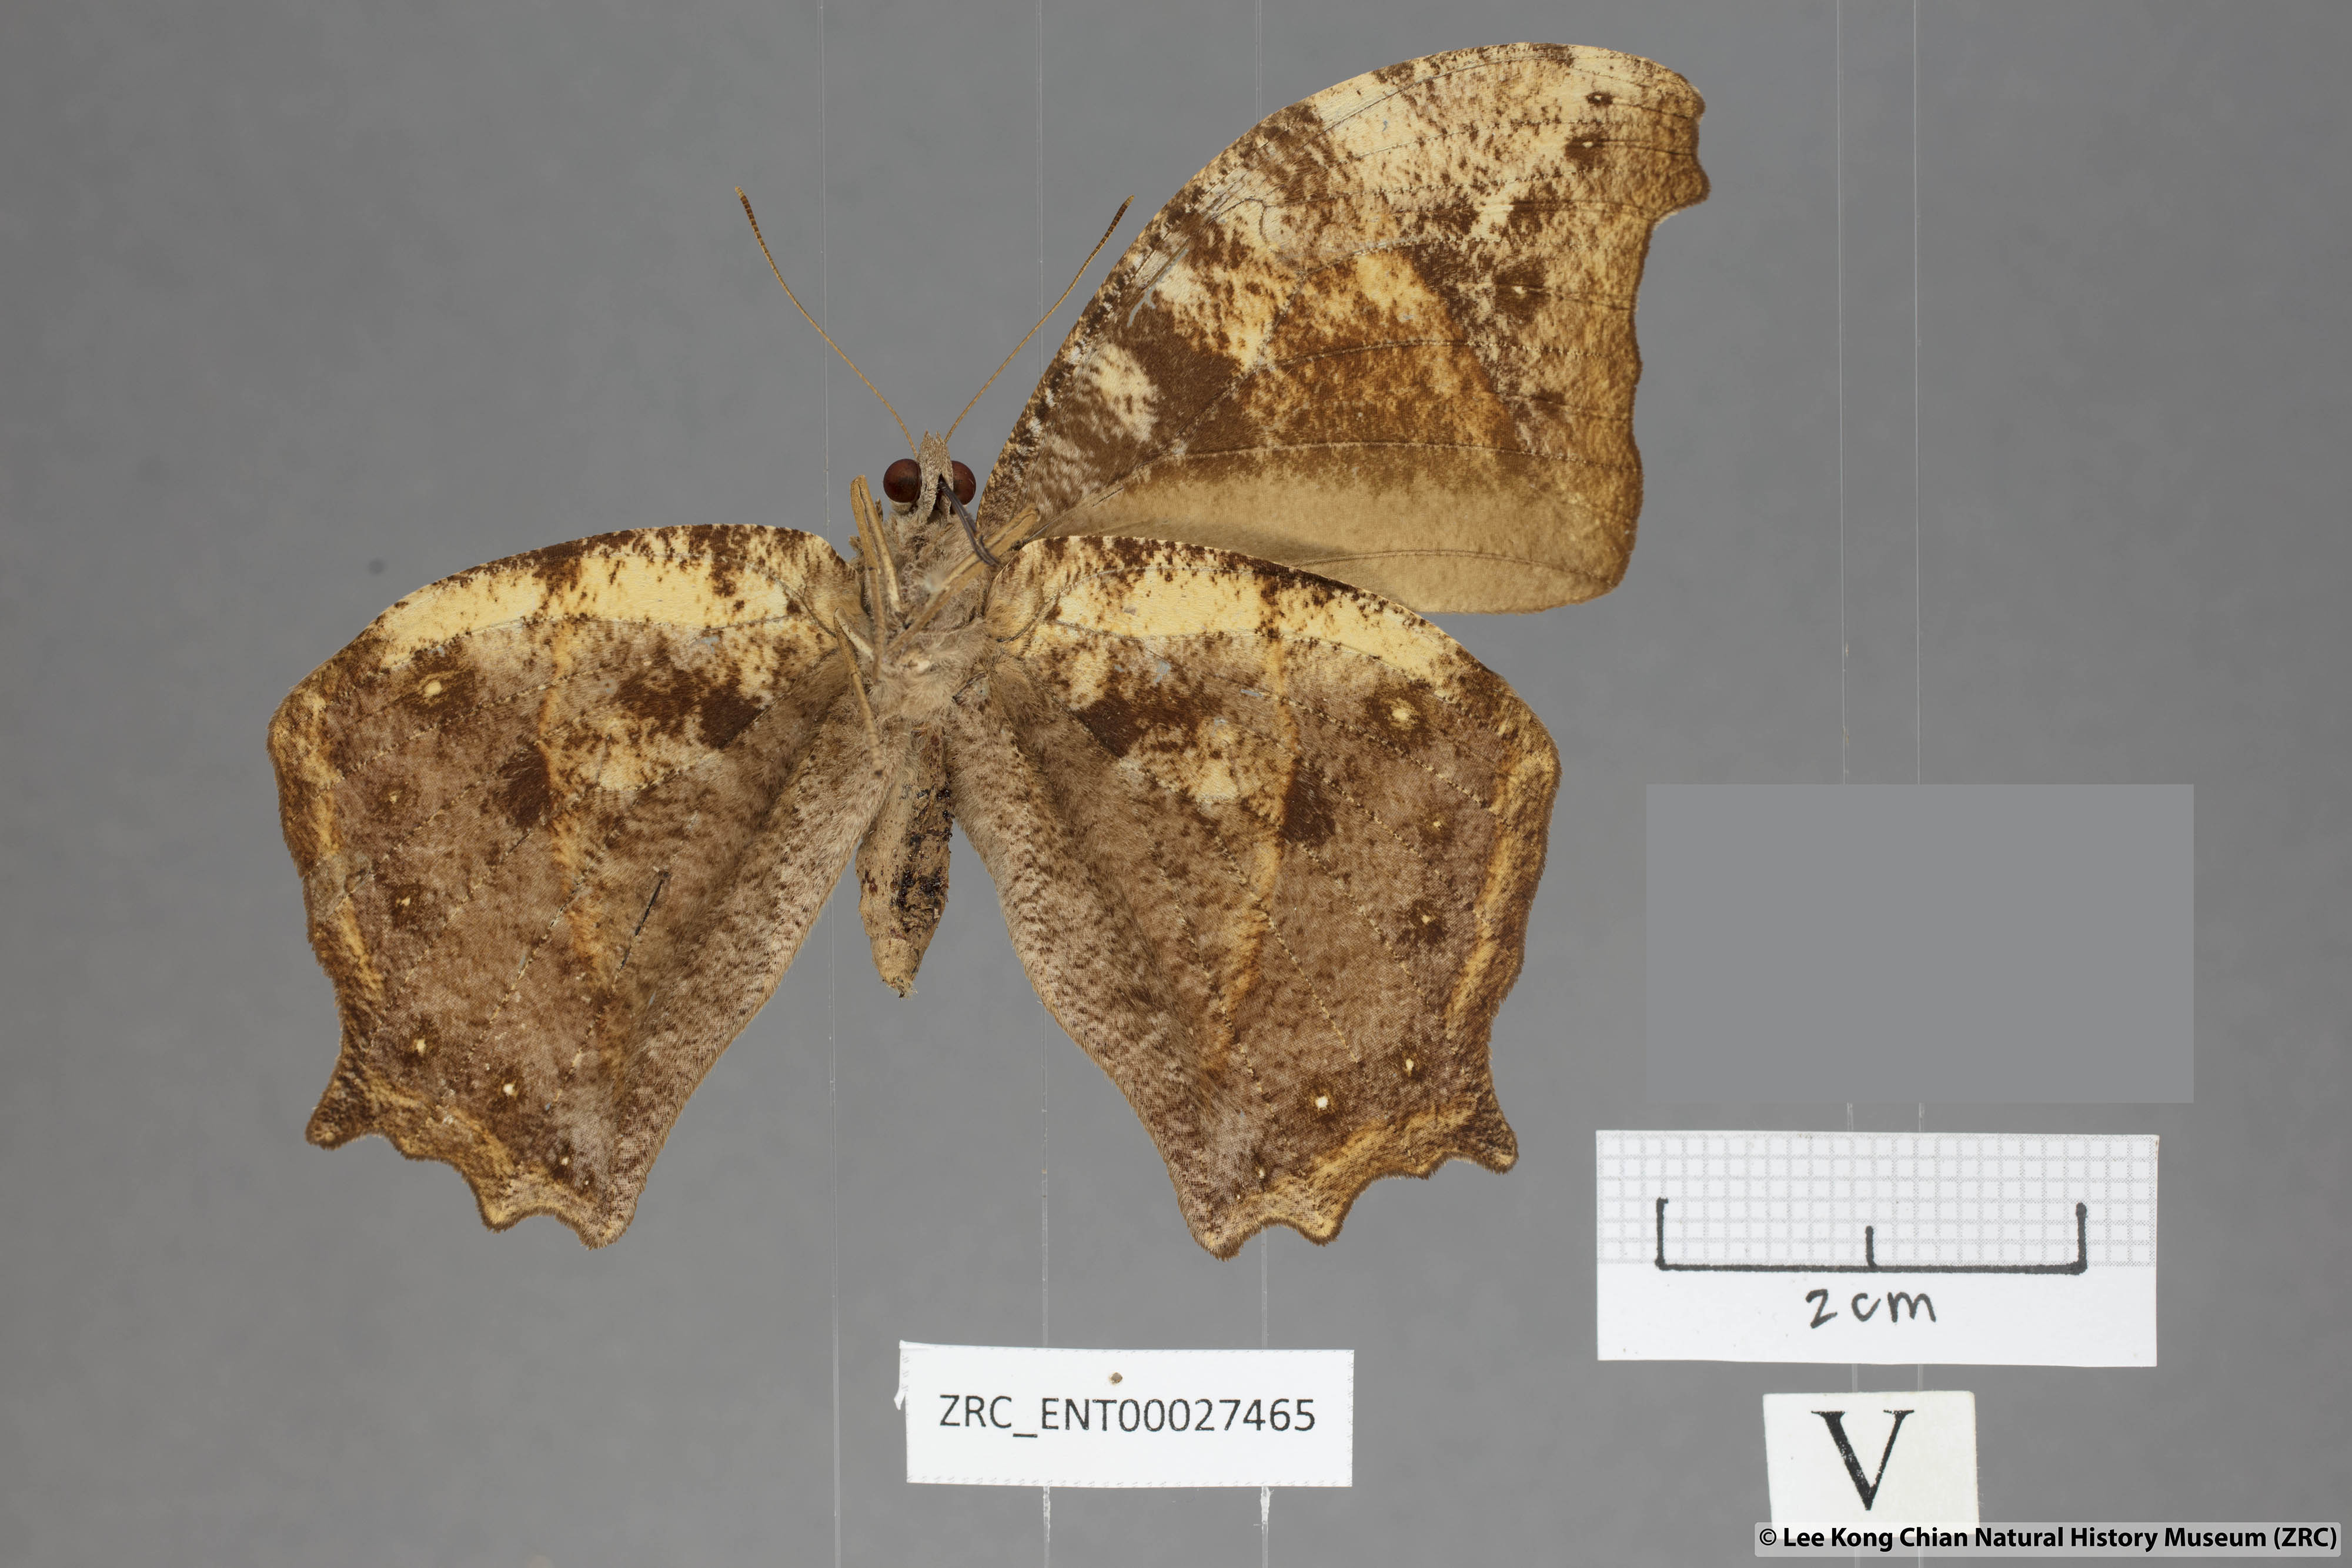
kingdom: Animalia
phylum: Arthropoda
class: Insecta
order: Lepidoptera
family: Nymphalidae
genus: Melanitis
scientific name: Melanitis zitenius
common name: Great evening brown
